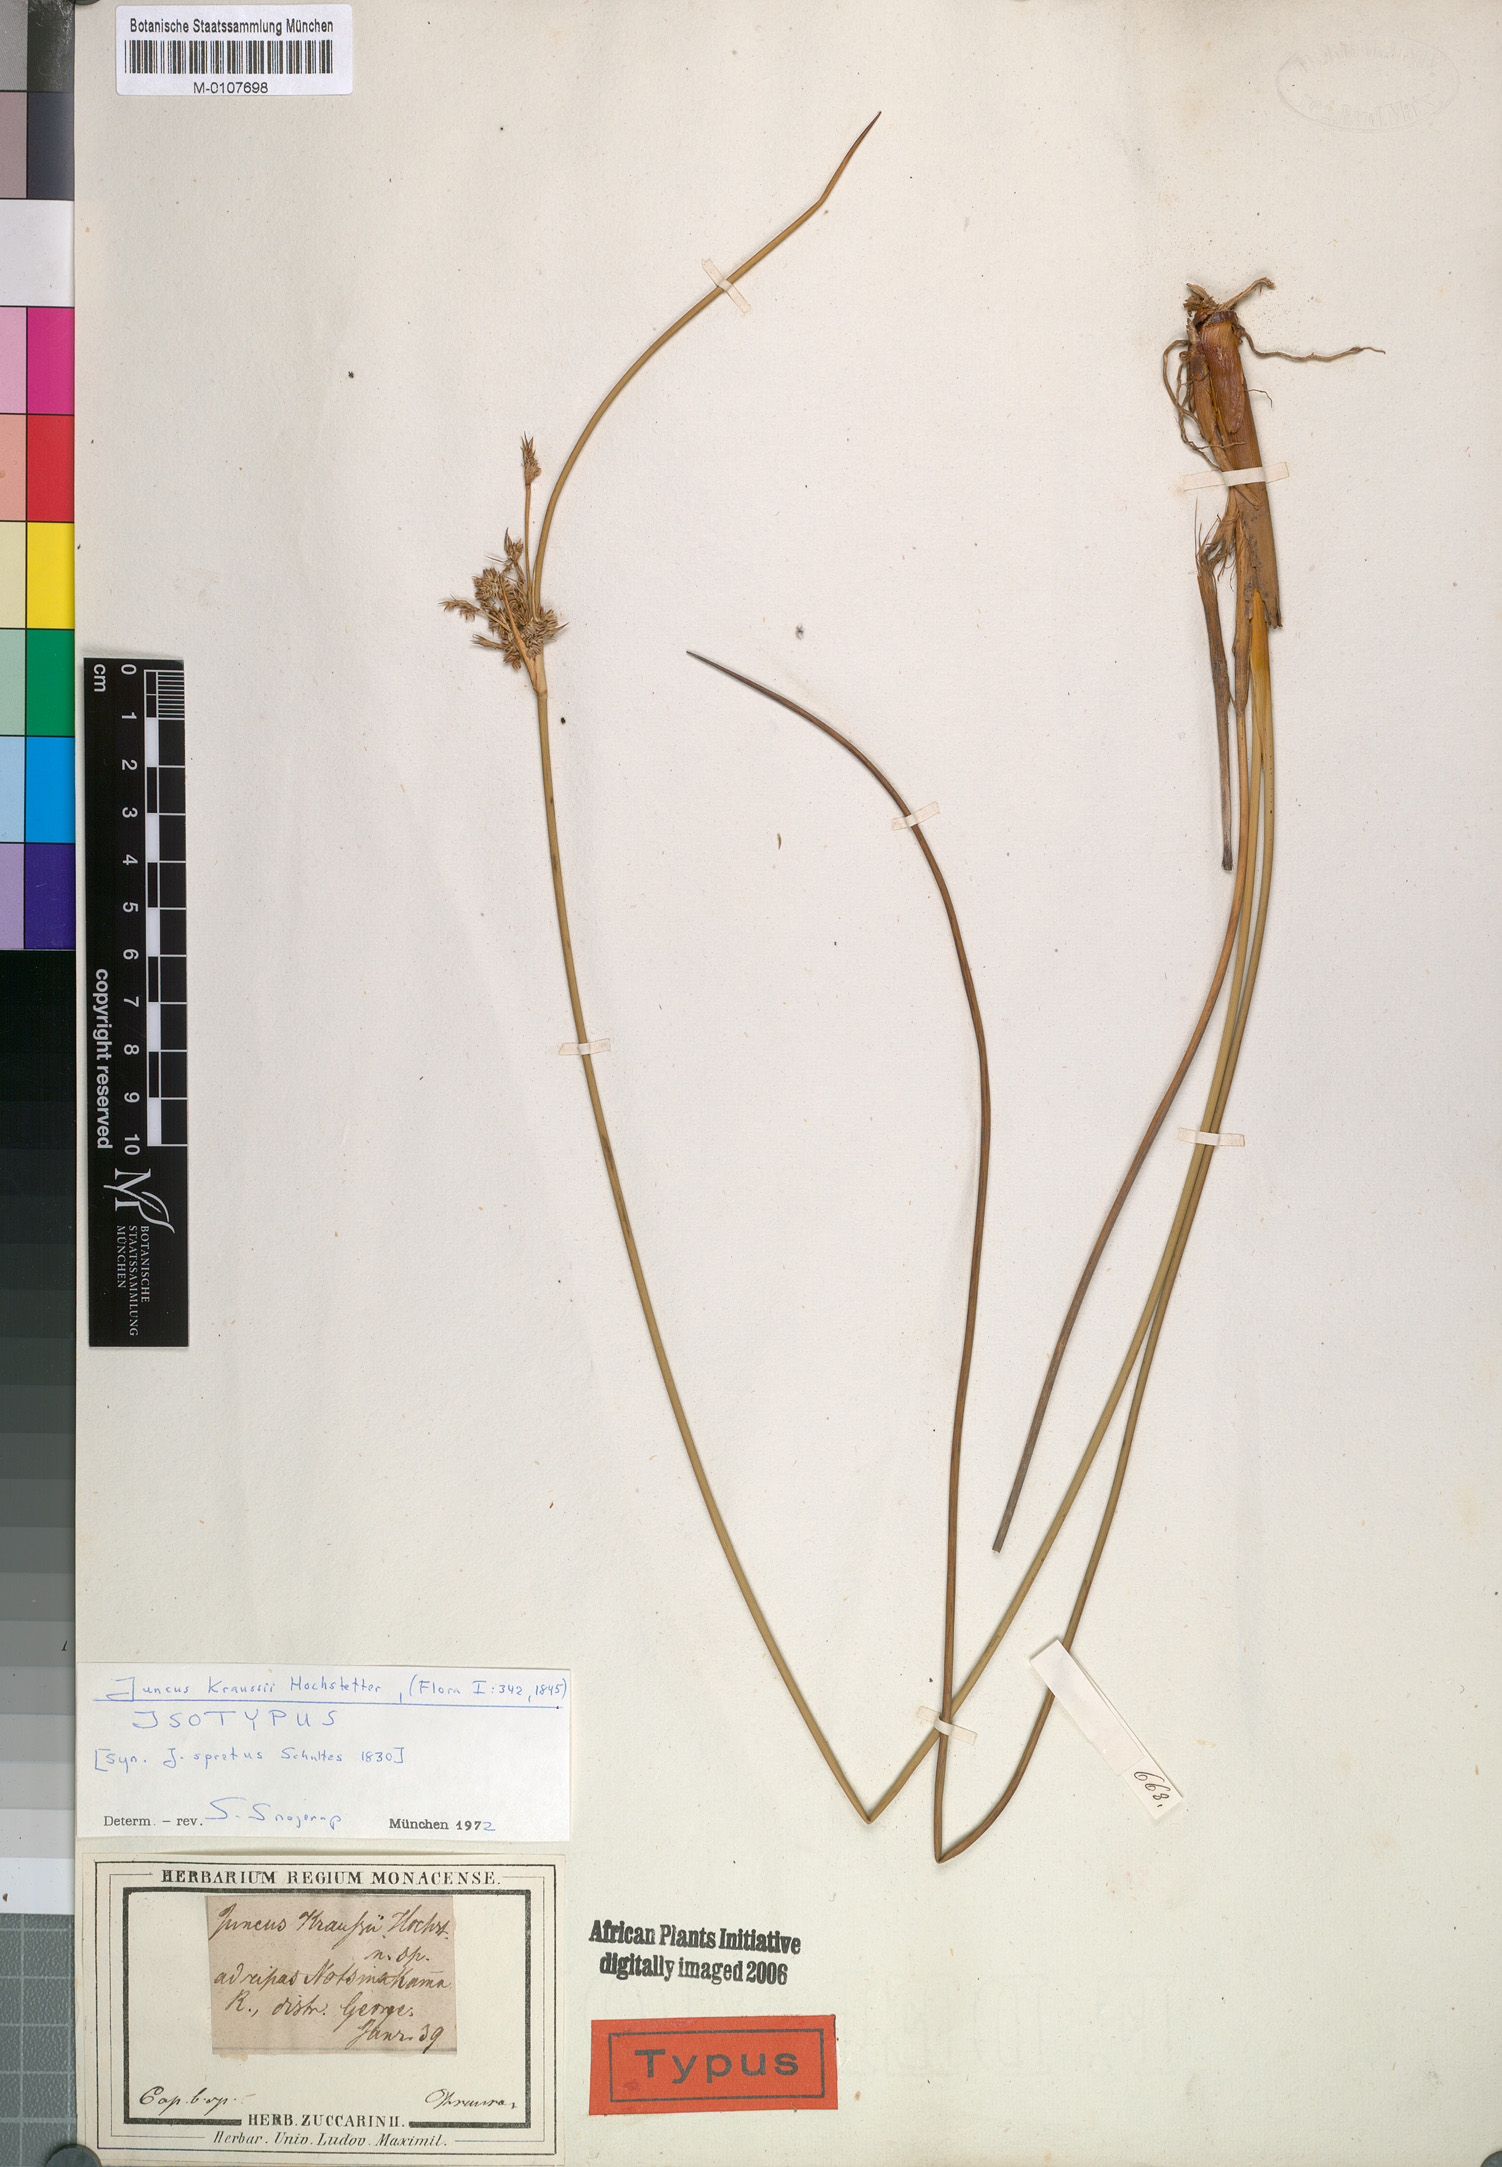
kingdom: Plantae
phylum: Tracheophyta
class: Liliopsida
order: Poales
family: Juncaceae
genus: Juncus
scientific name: Juncus kraussii
